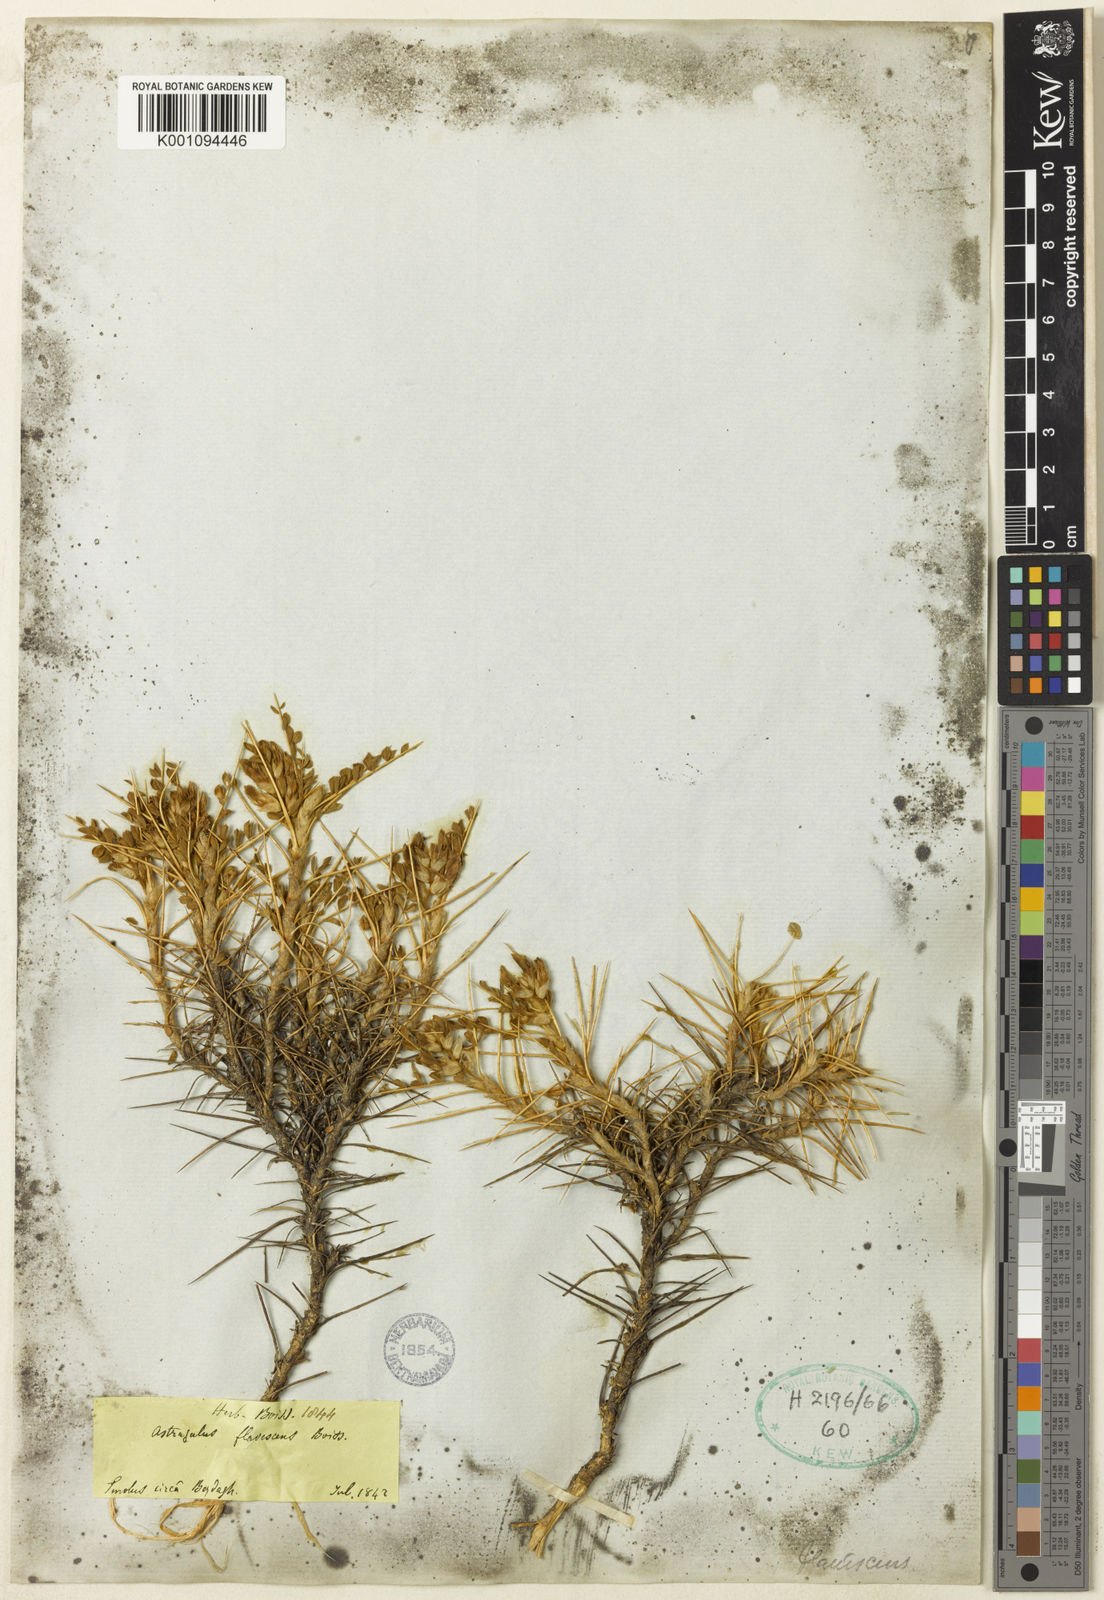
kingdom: Plantae
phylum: Tracheophyta
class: Magnoliopsida
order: Fabales
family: Fabaceae
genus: Astragalus
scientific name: Astragalus
